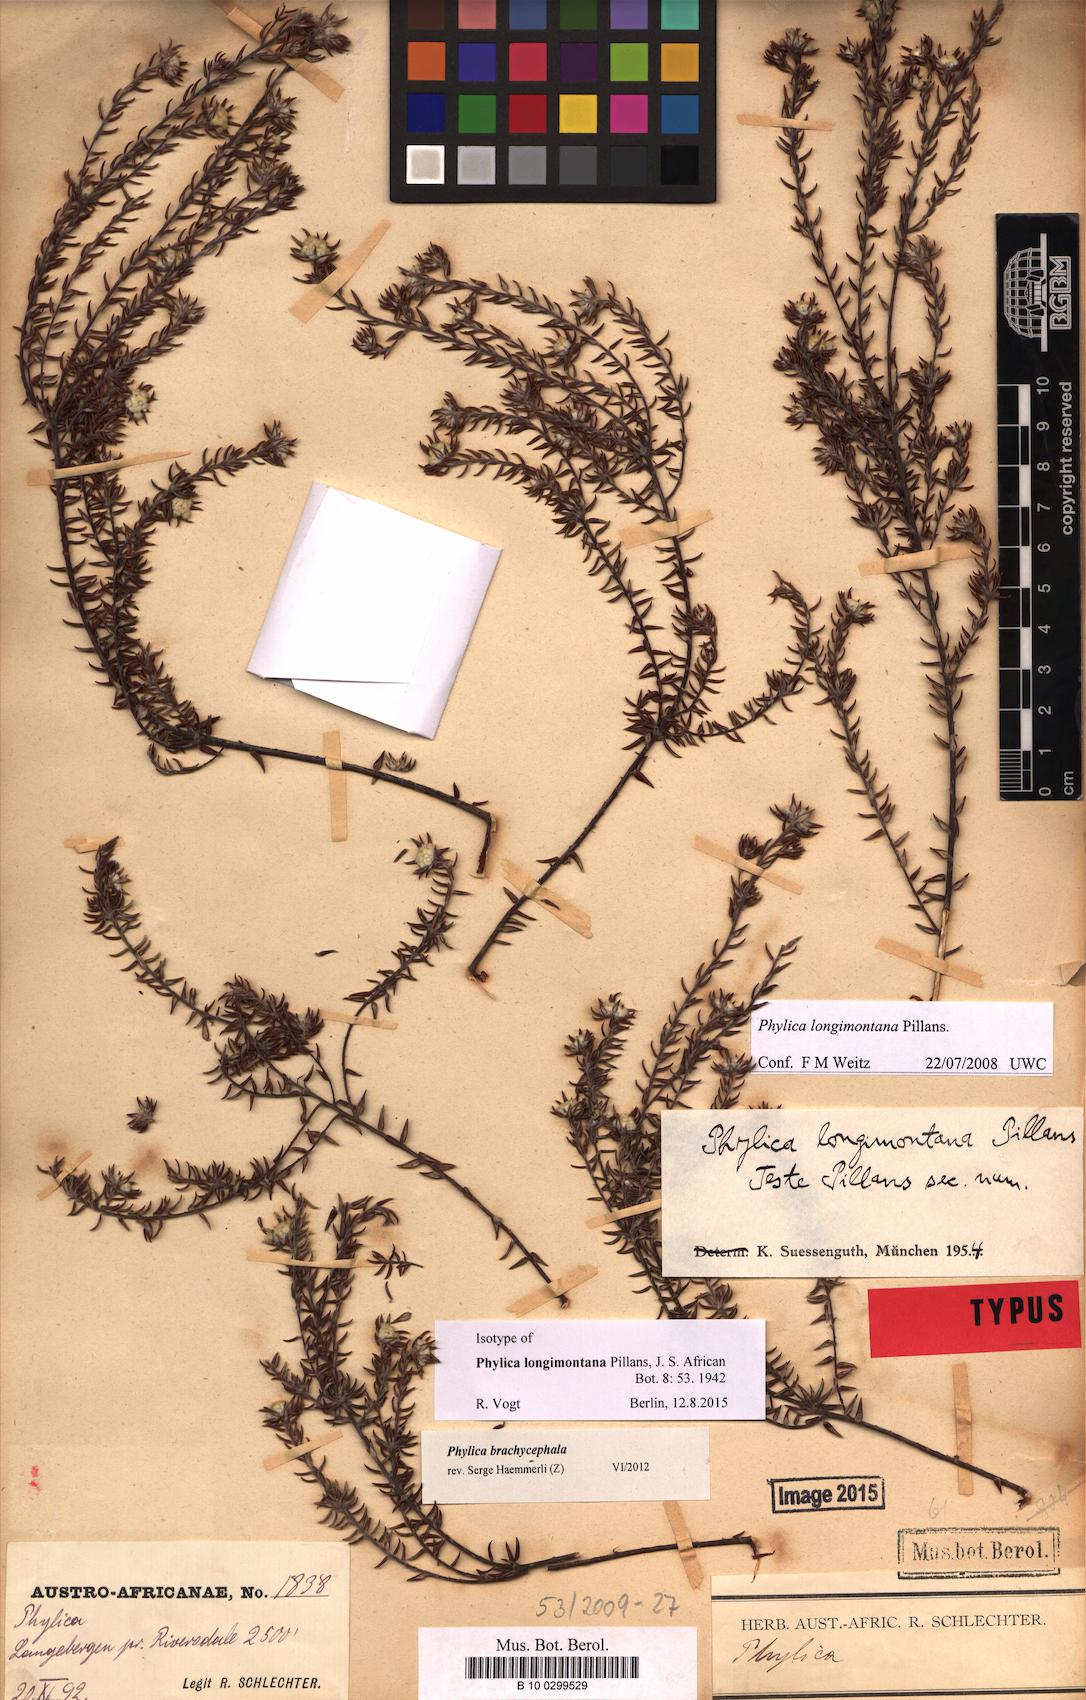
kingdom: Plantae
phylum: Tracheophyta
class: Magnoliopsida
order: Rosales
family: Rhamnaceae
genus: Phylica
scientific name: Phylica brachycephala
